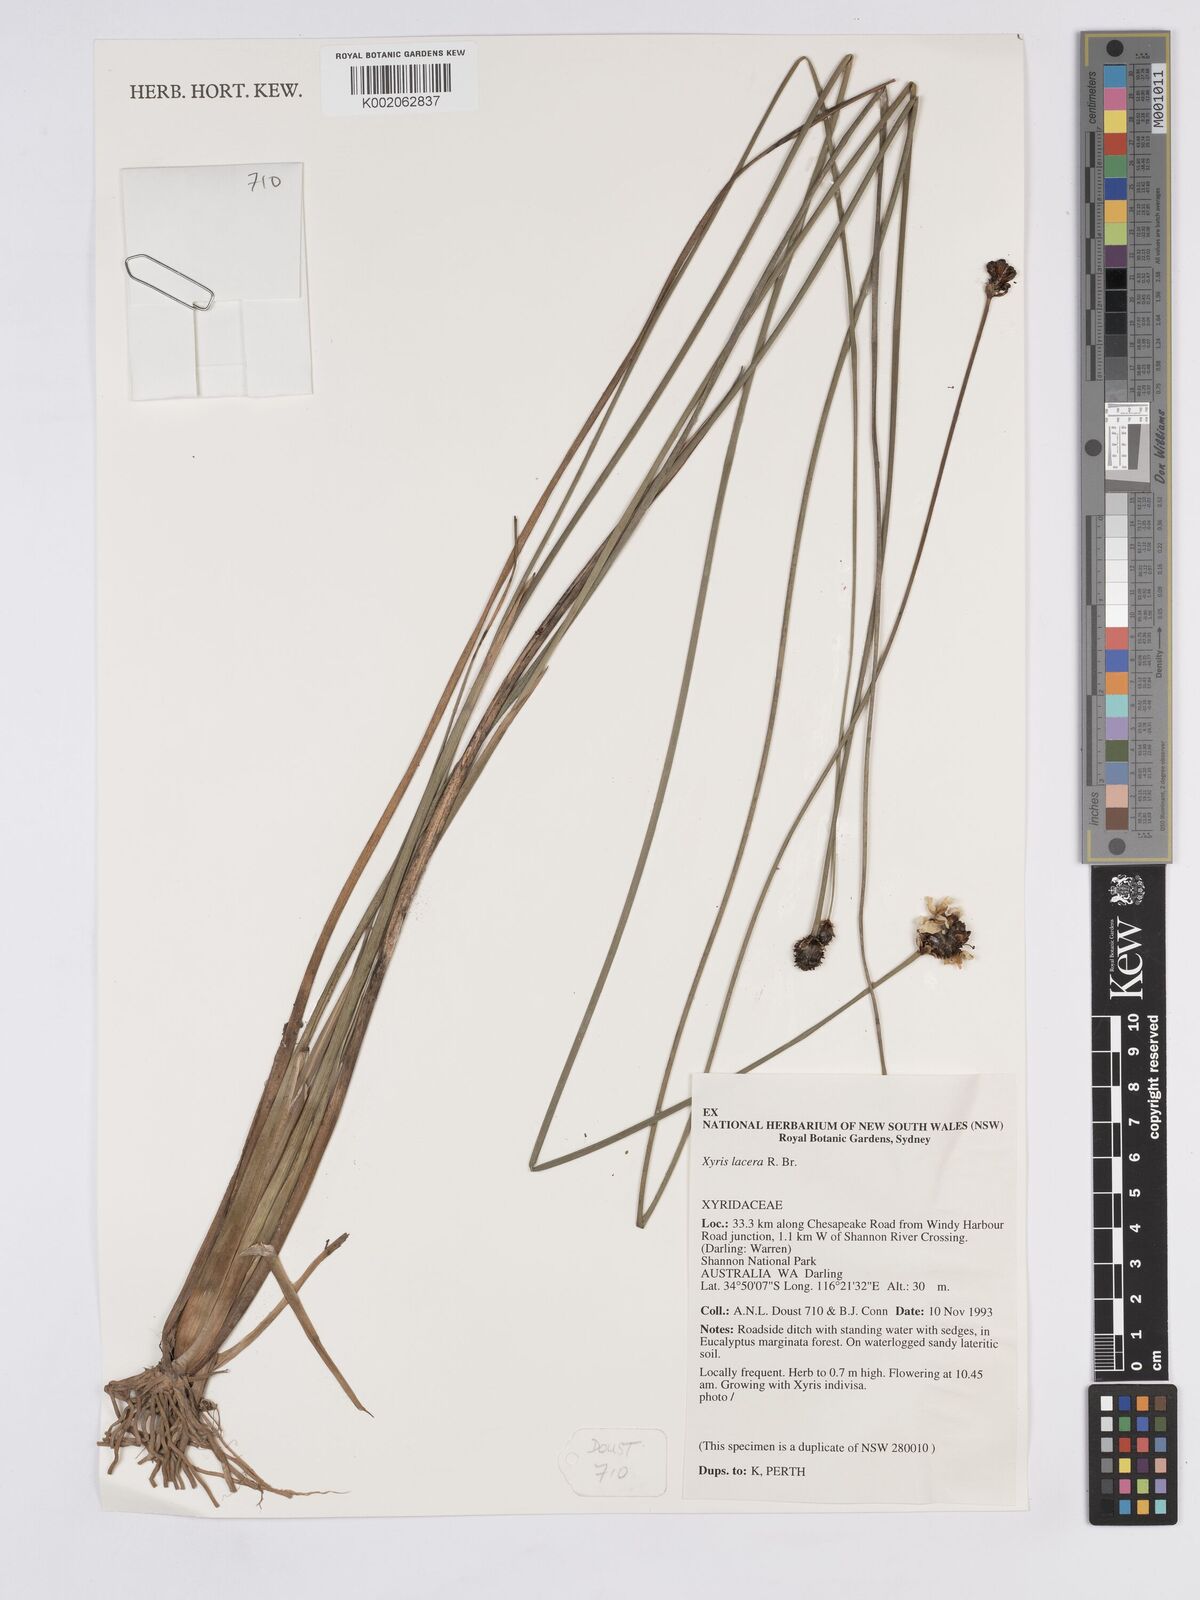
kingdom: Plantae
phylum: Tracheophyta
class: Liliopsida
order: Poales
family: Xyridaceae
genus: Xyris
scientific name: Xyris lacera
